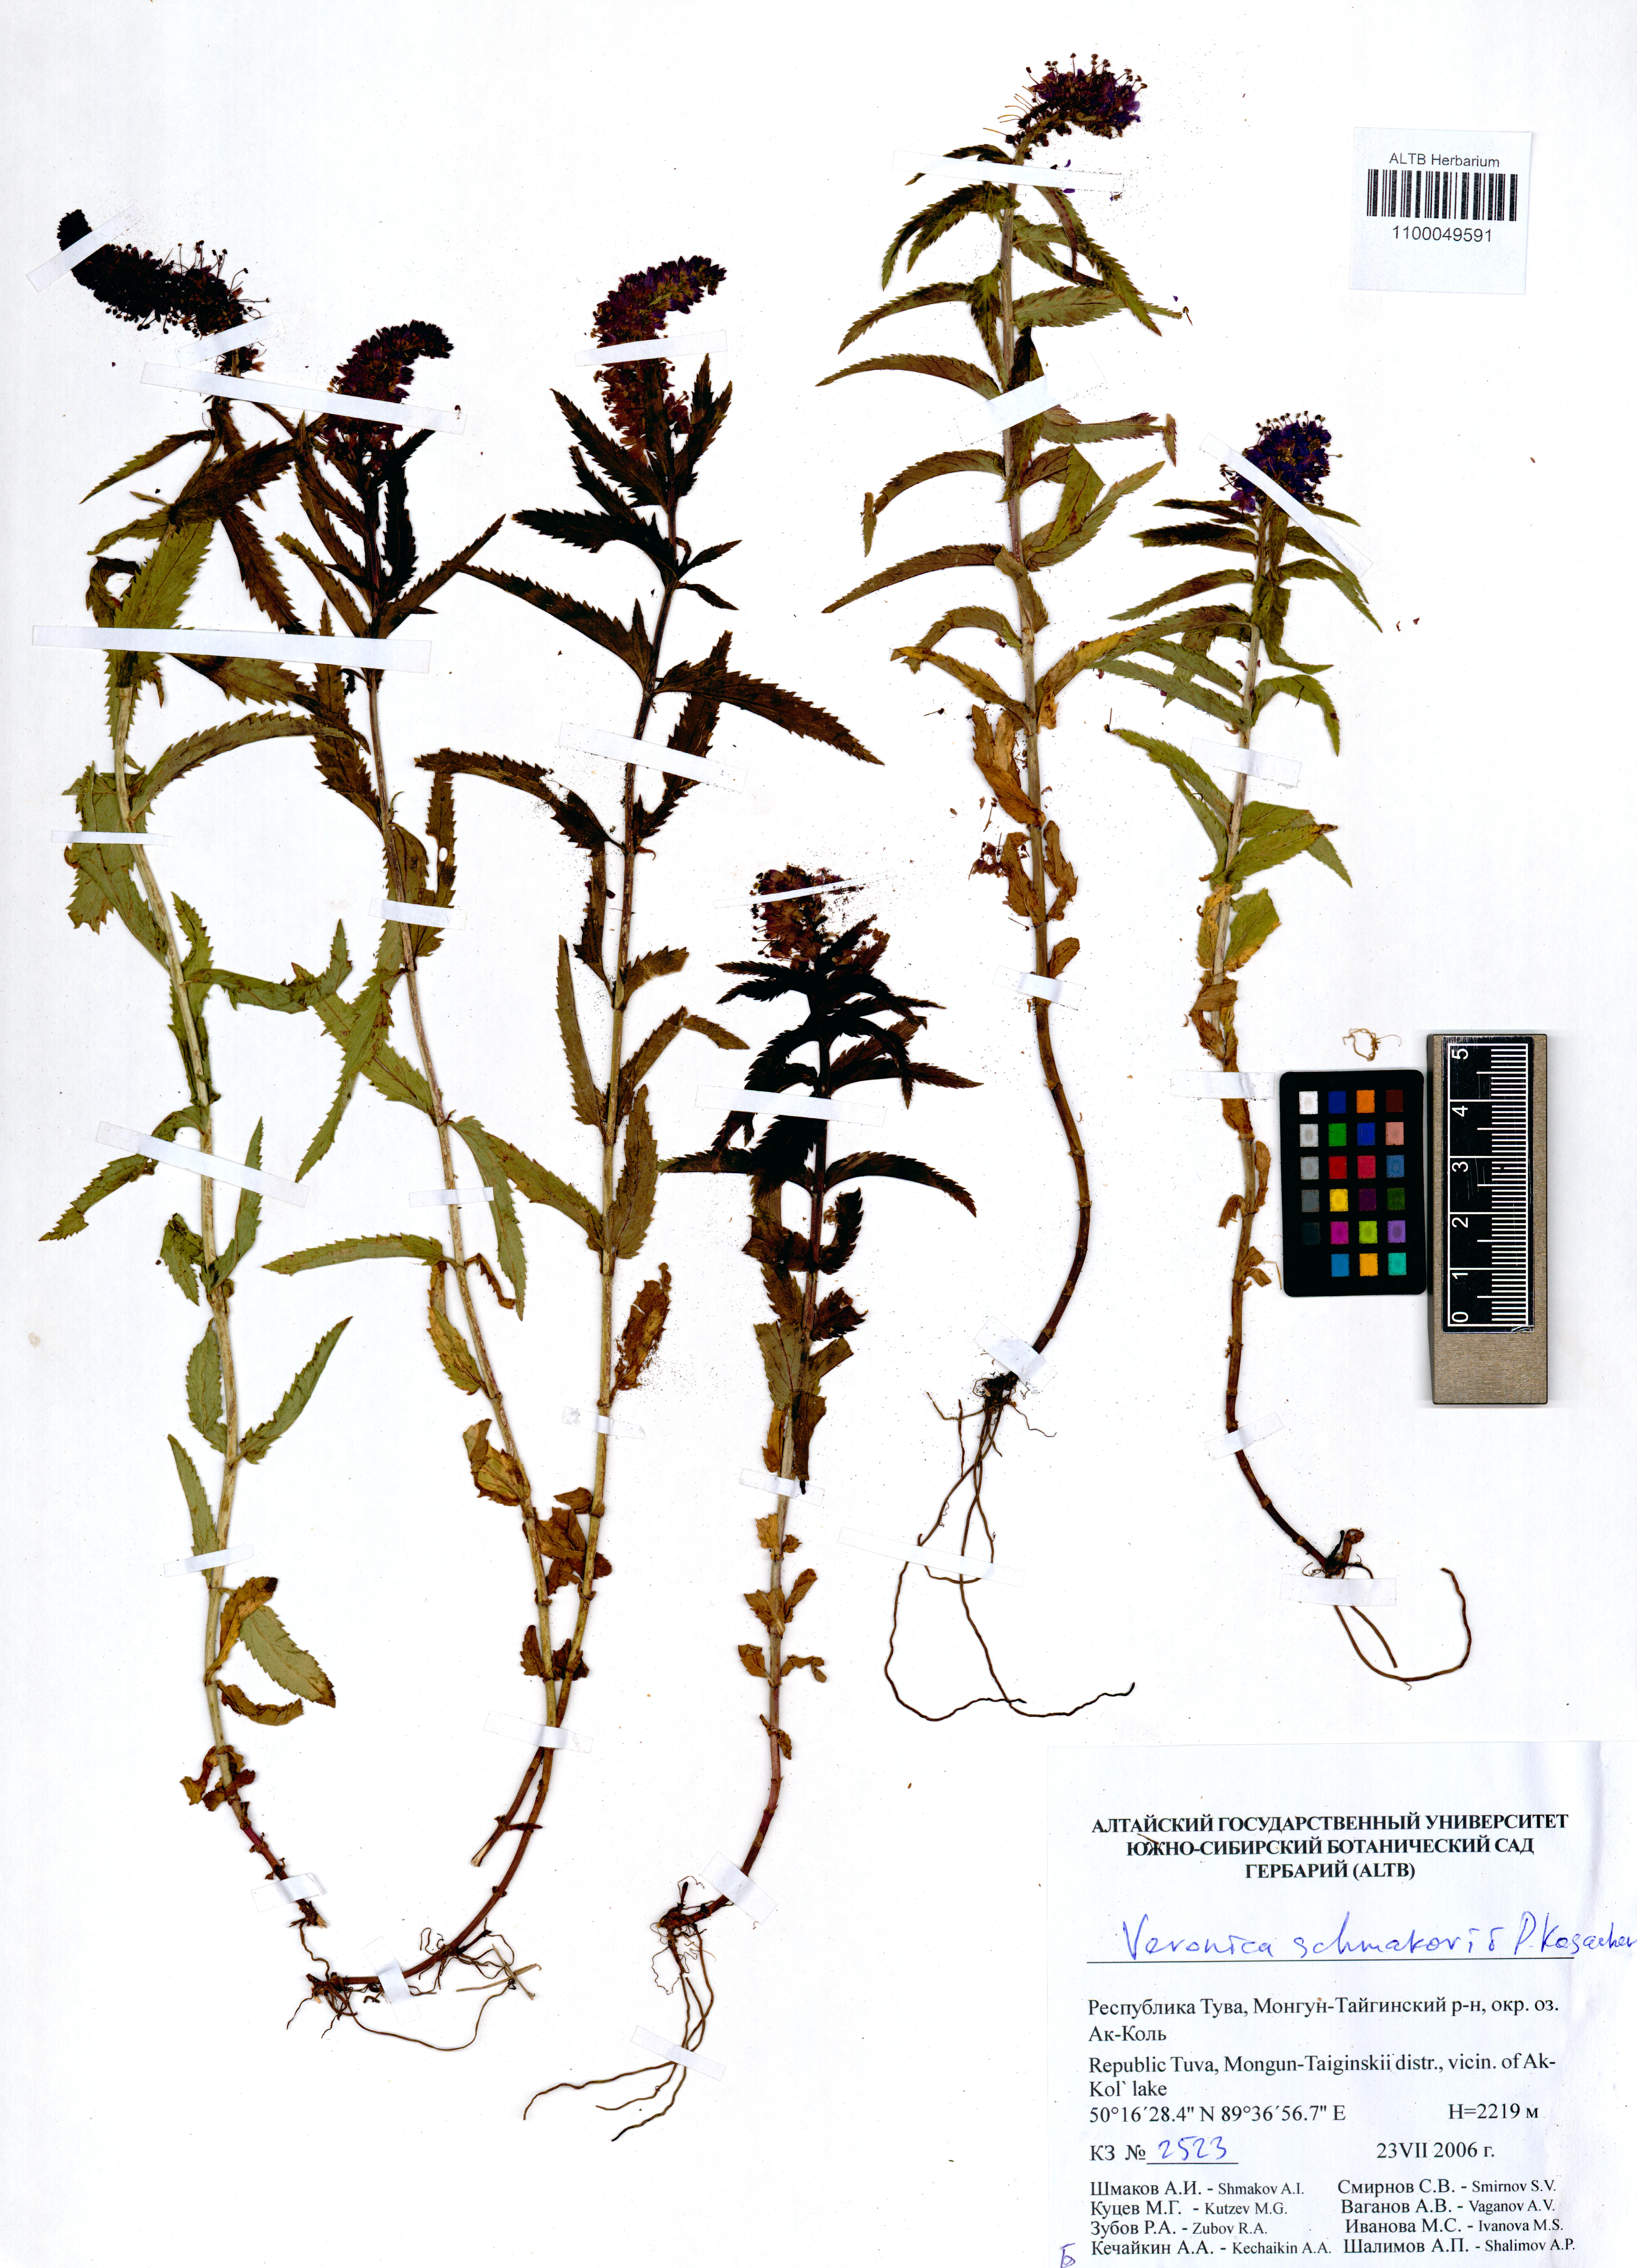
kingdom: Plantae
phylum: Tracheophyta
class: Magnoliopsida
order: Lamiales
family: Plantaginaceae
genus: Veronica
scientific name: Veronica schmakovii
